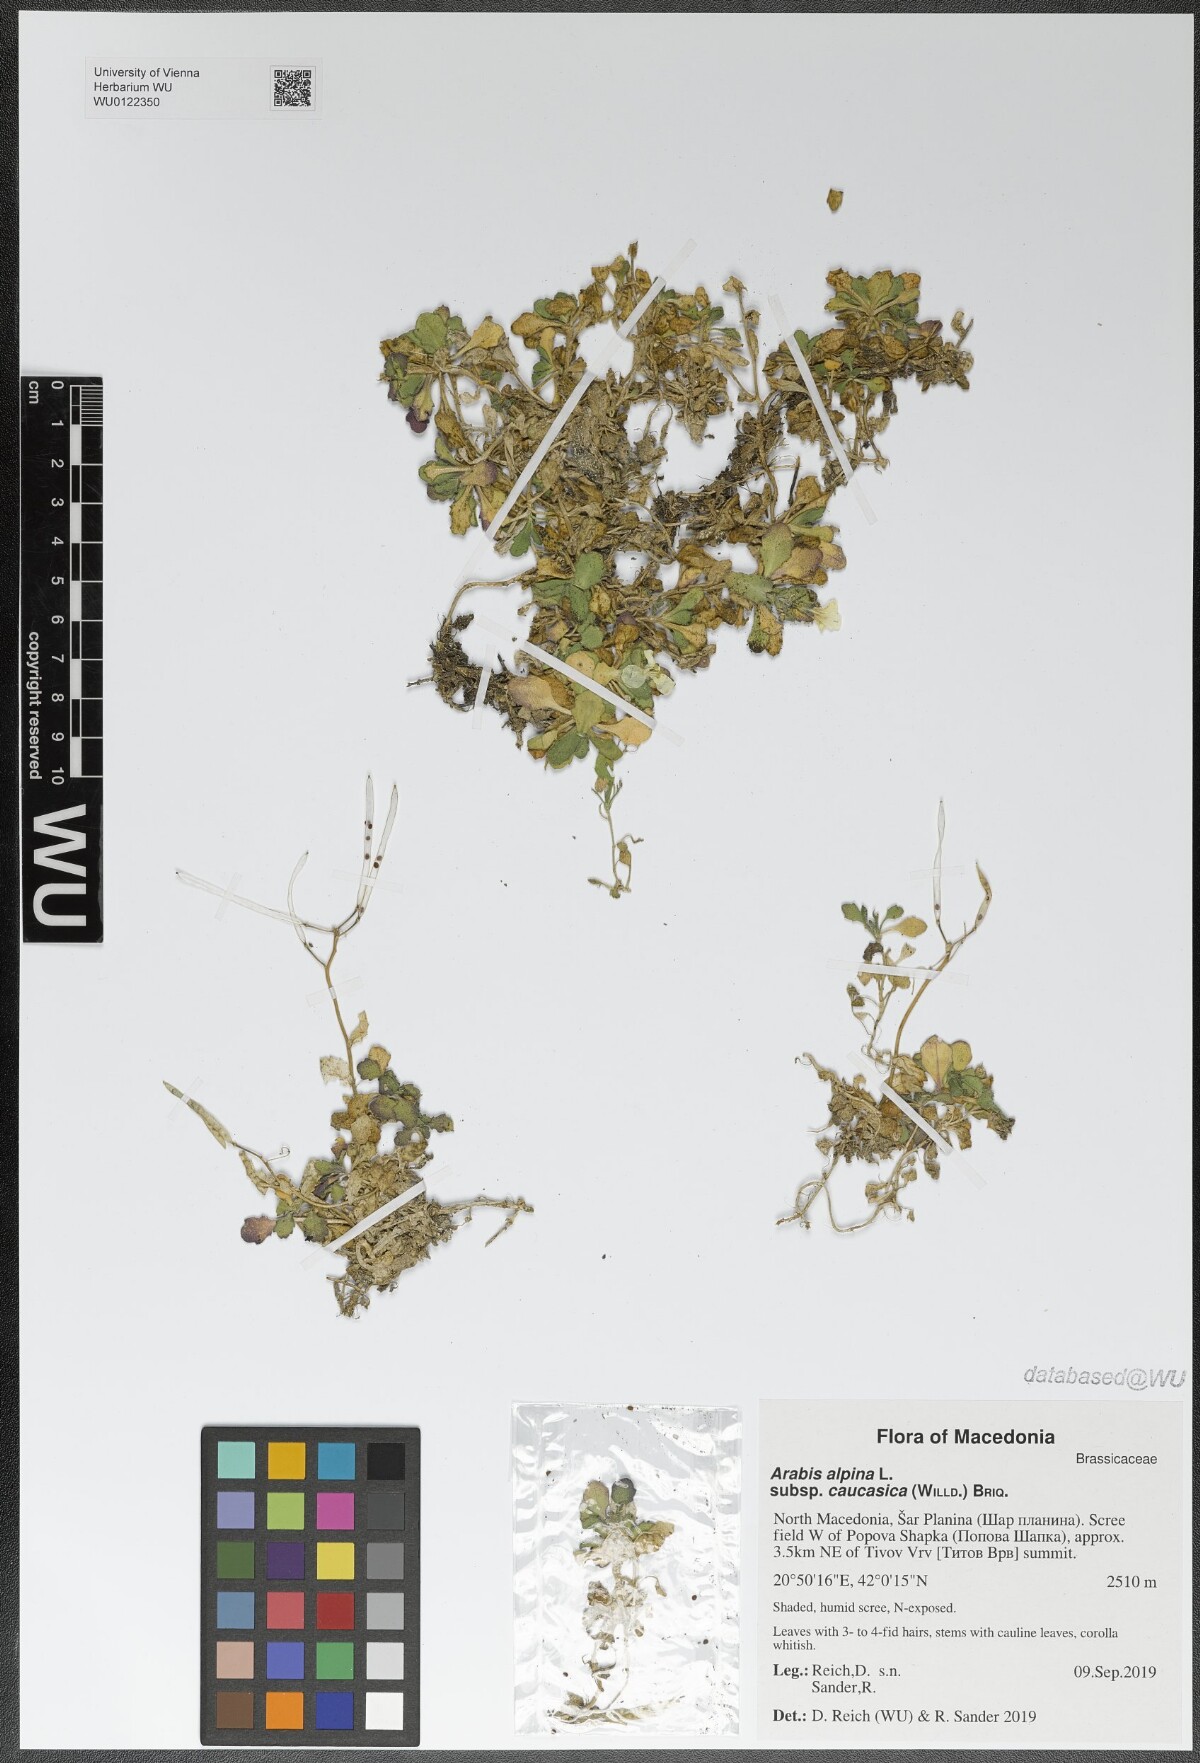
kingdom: Plantae
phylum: Tracheophyta
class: Magnoliopsida
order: Brassicales
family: Brassicaceae
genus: Arabis
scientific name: Arabis caucasica
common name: Gray rockcress
